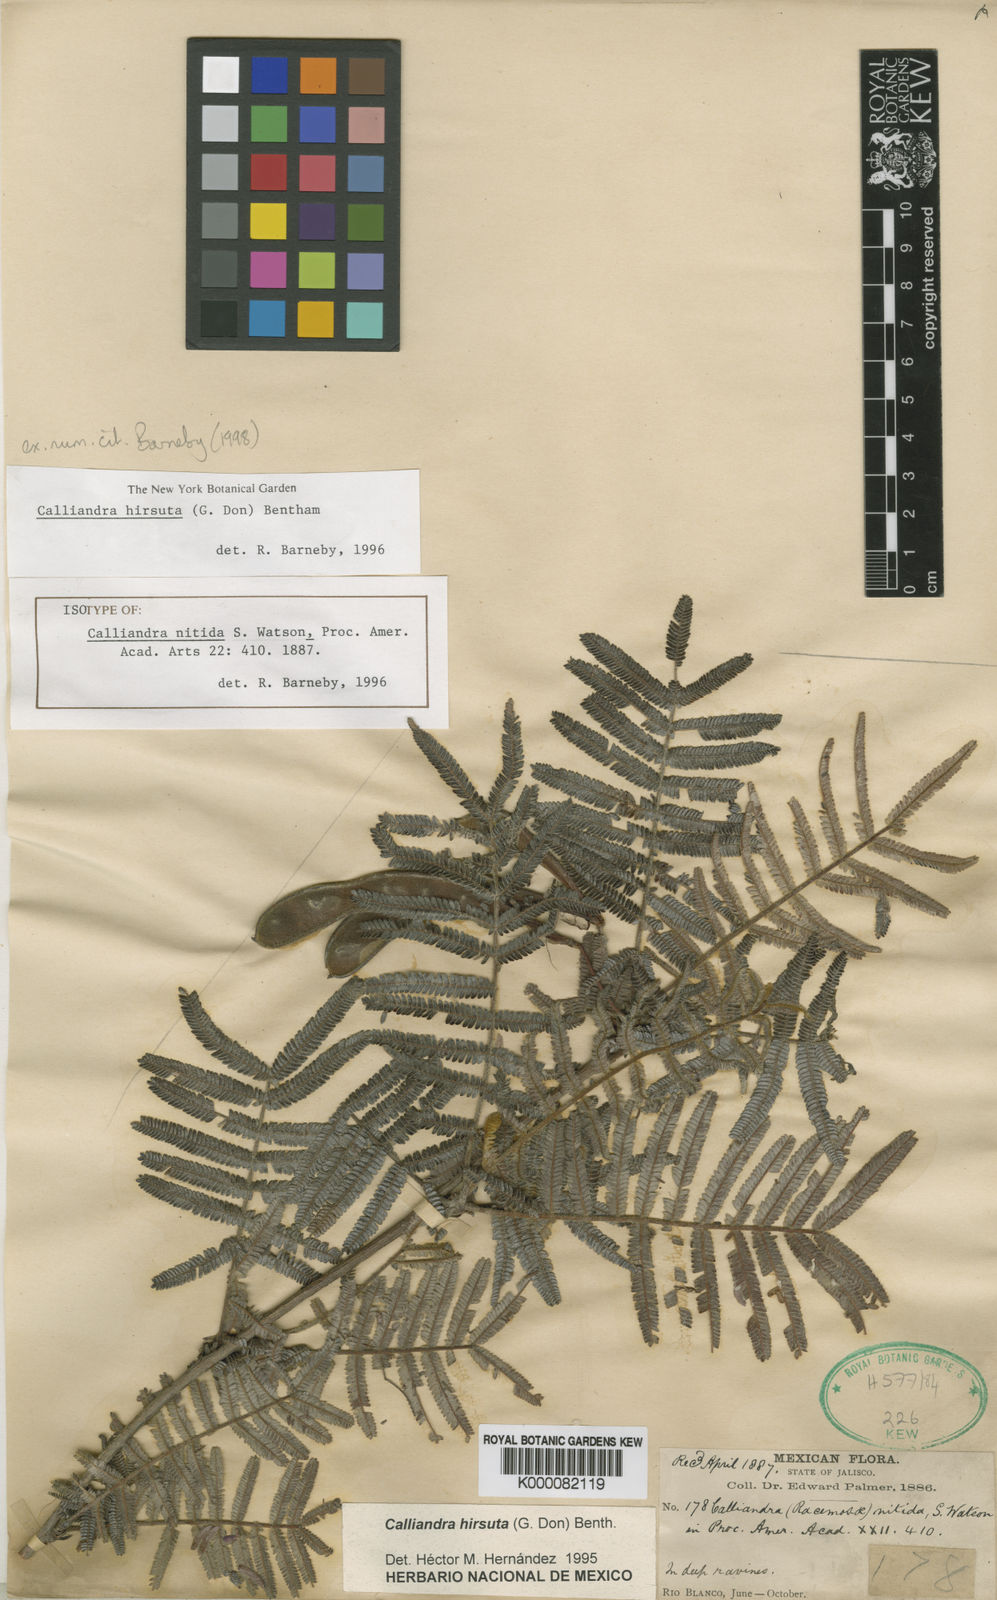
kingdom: Plantae
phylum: Tracheophyta
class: Magnoliopsida
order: Fabales
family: Fabaceae
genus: Calliandra
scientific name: Calliandra hirsuta
